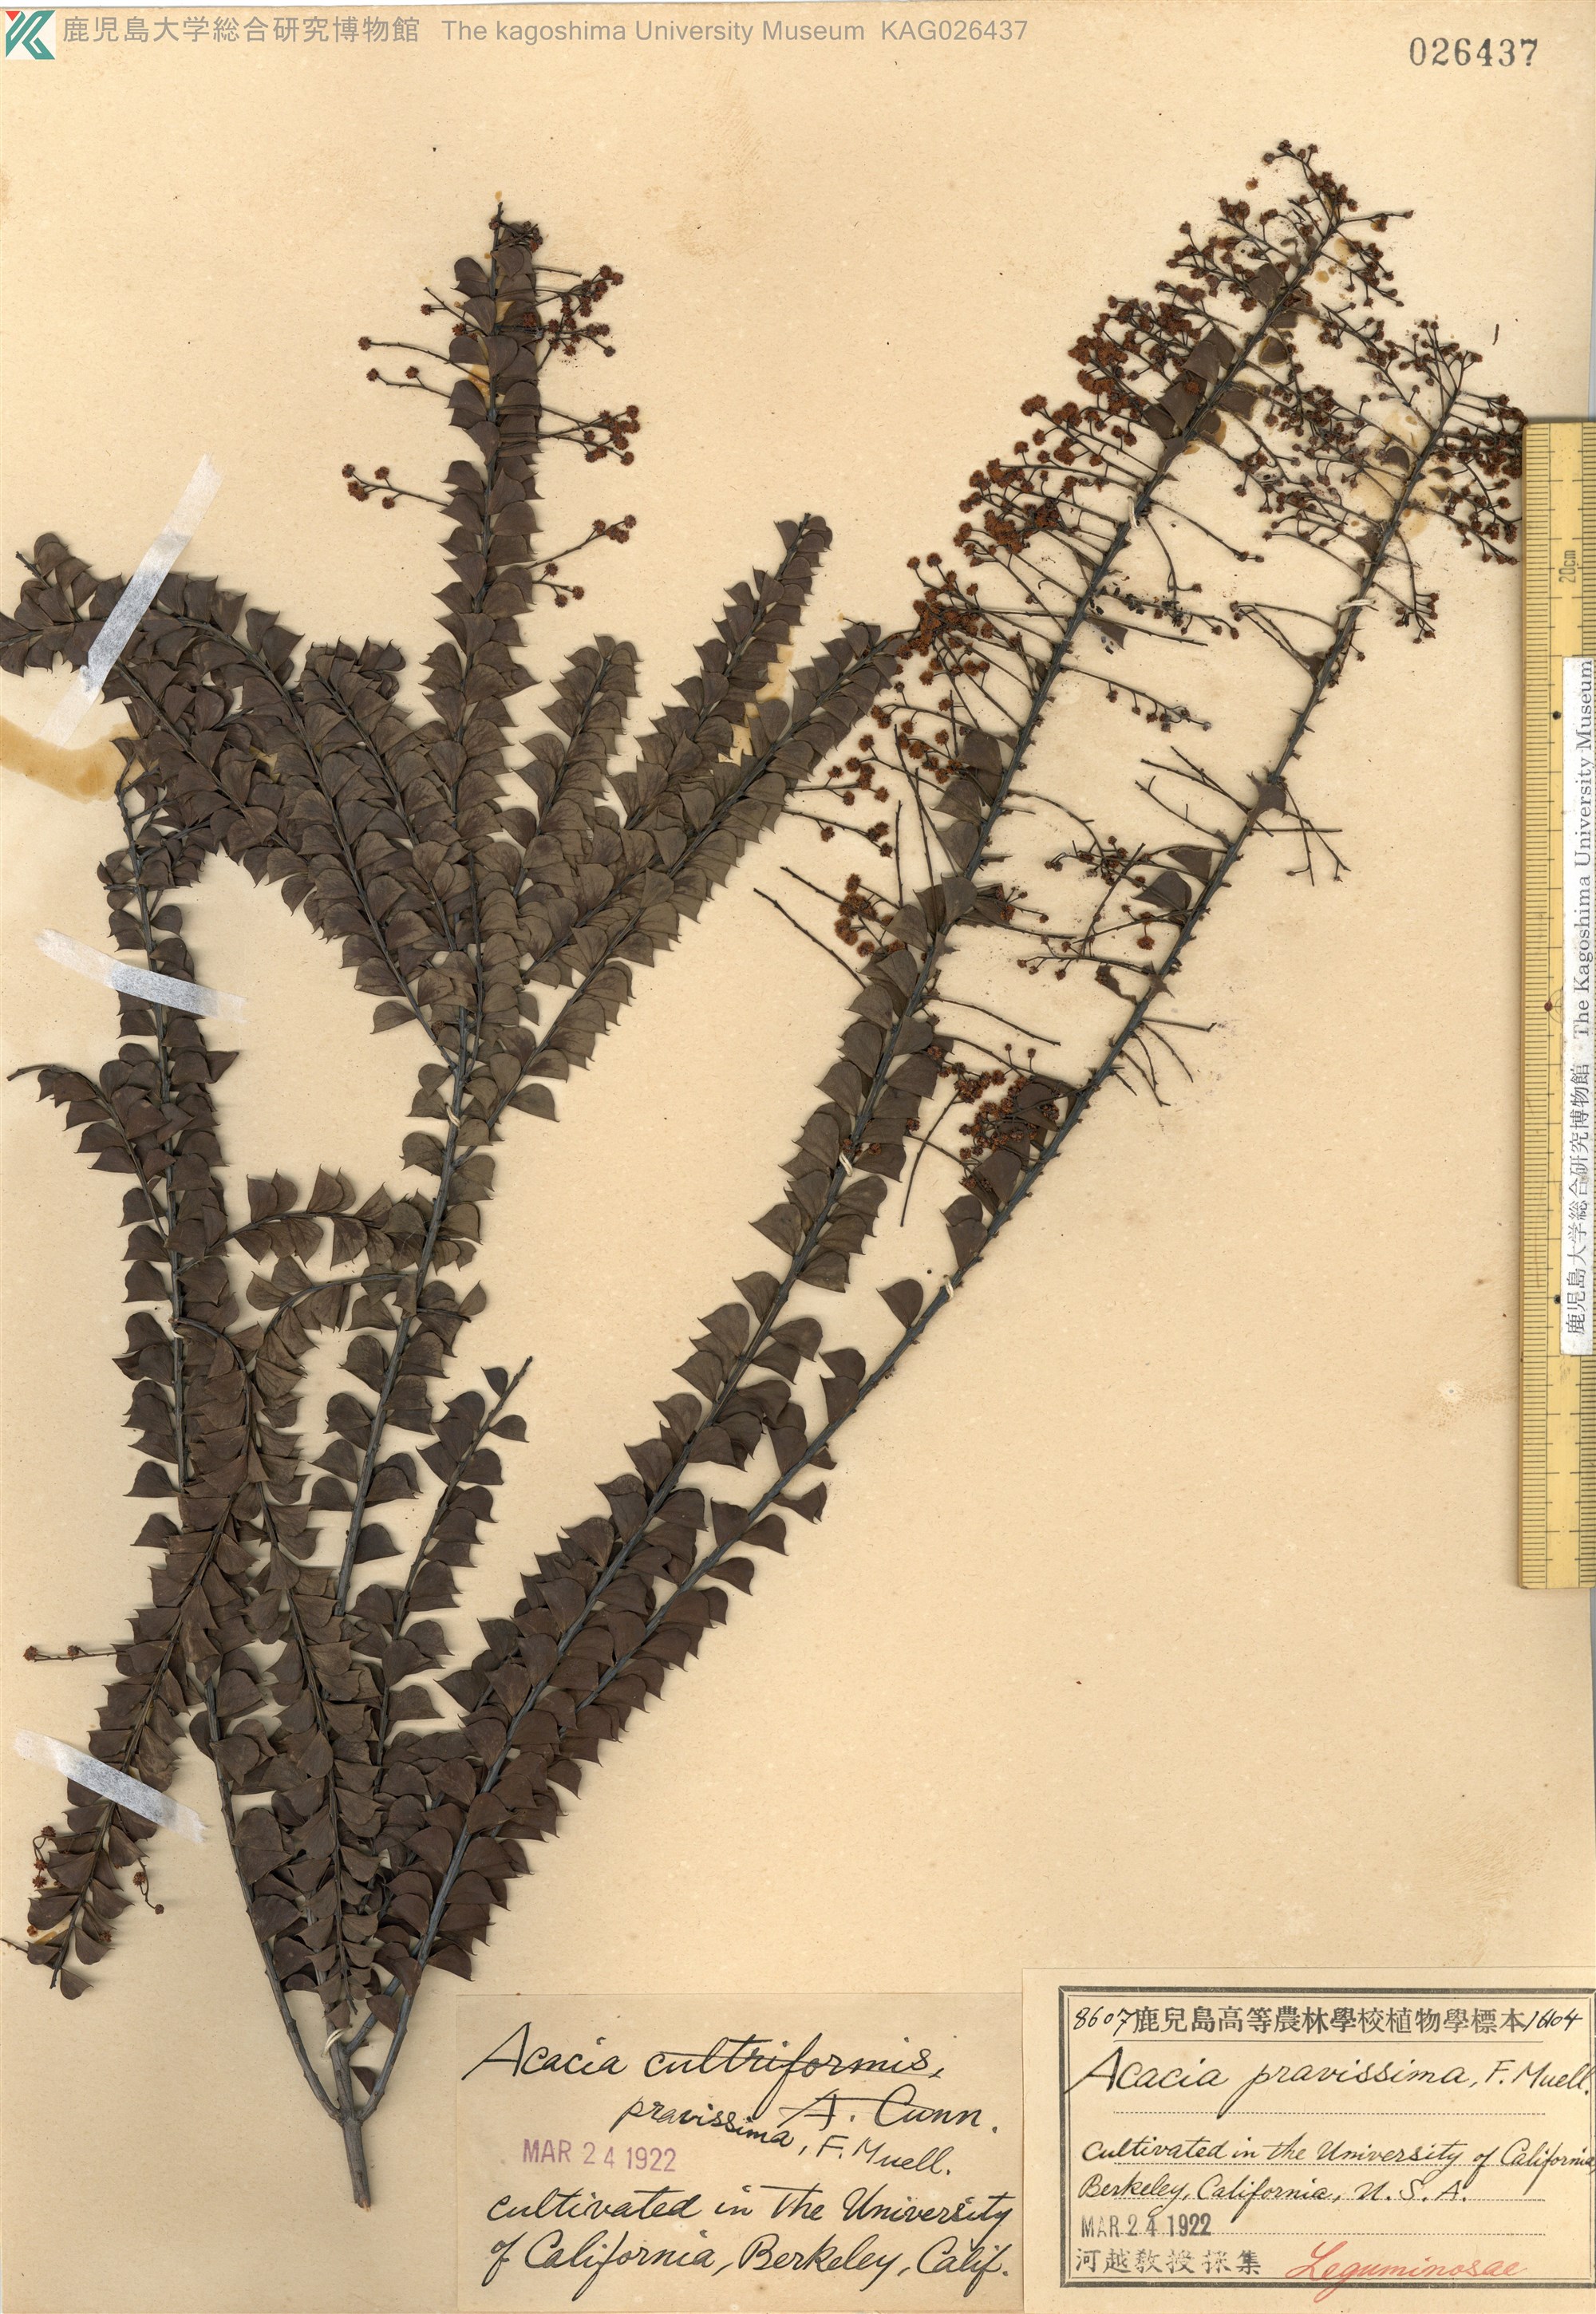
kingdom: Plantae
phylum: Tracheophyta
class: Magnoliopsida
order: Fabales
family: Fabaceae
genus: Acacia
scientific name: Acacia pravissima
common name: Tumut wattle
